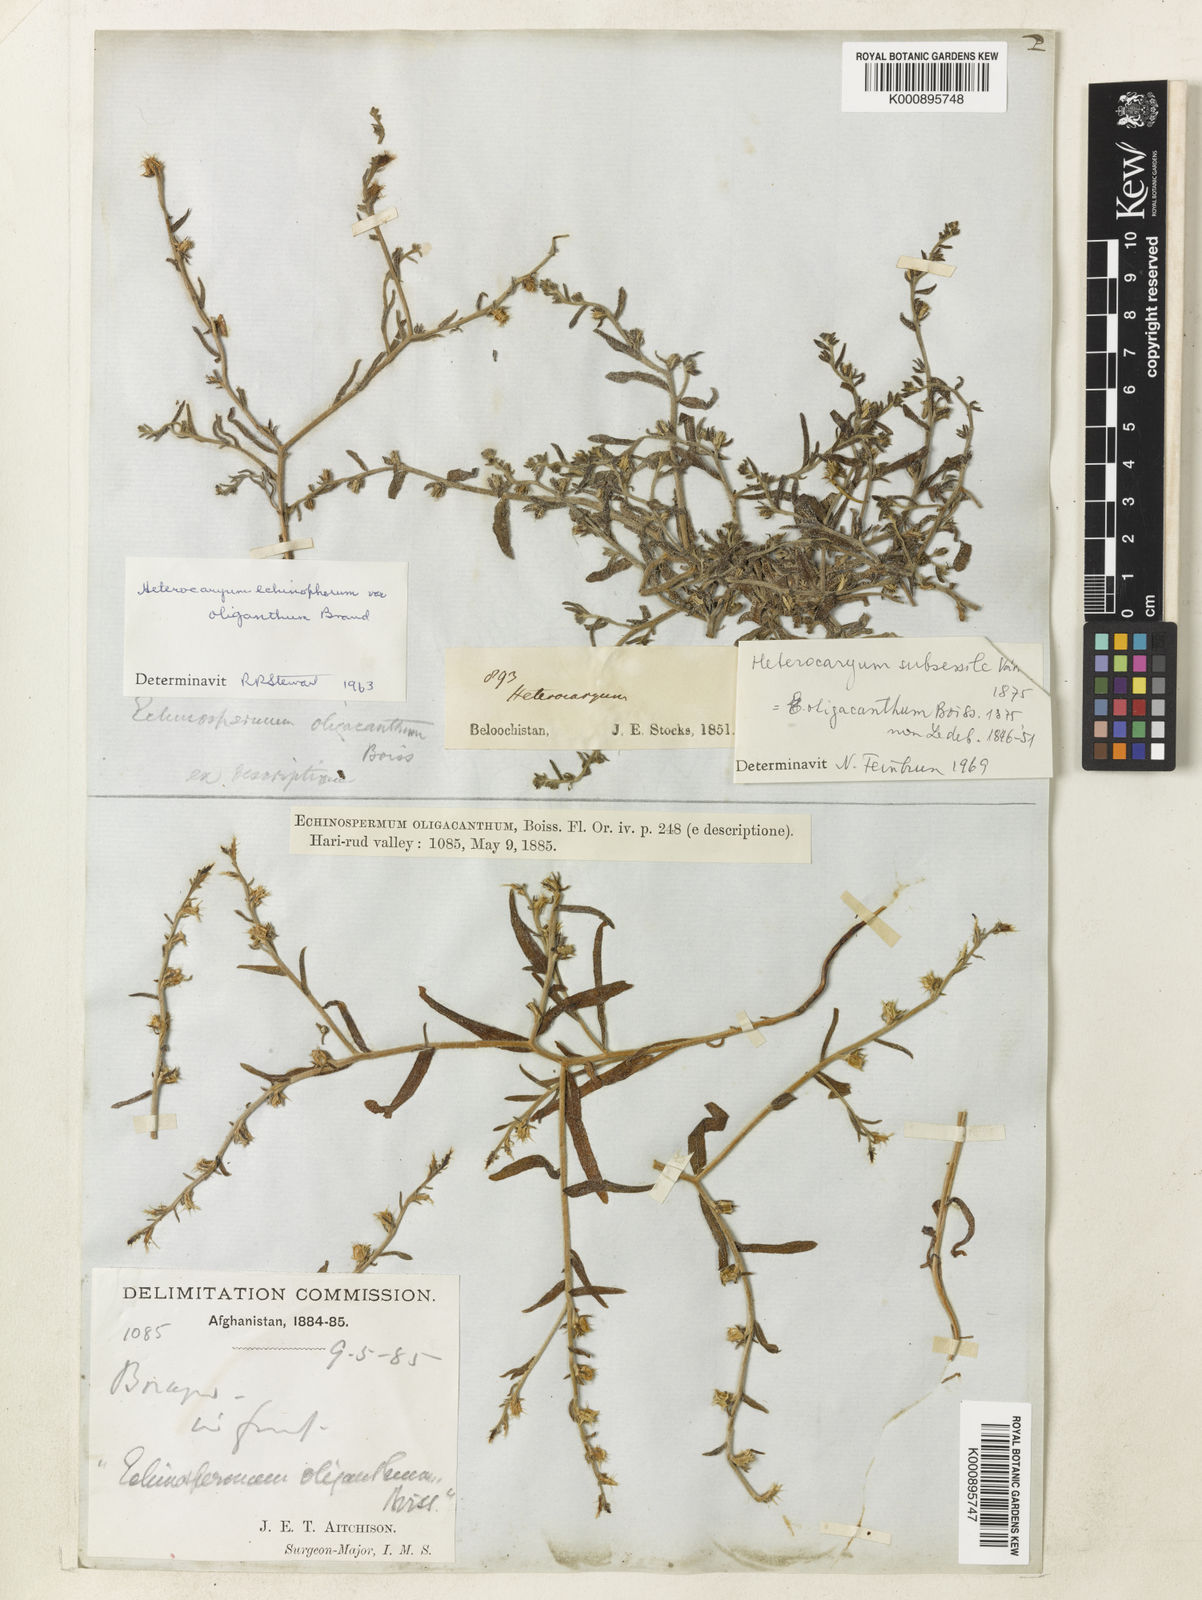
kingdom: Plantae
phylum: Tracheophyta
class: Magnoliopsida
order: Boraginales
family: Boraginaceae
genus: Lappula
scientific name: Lappula
